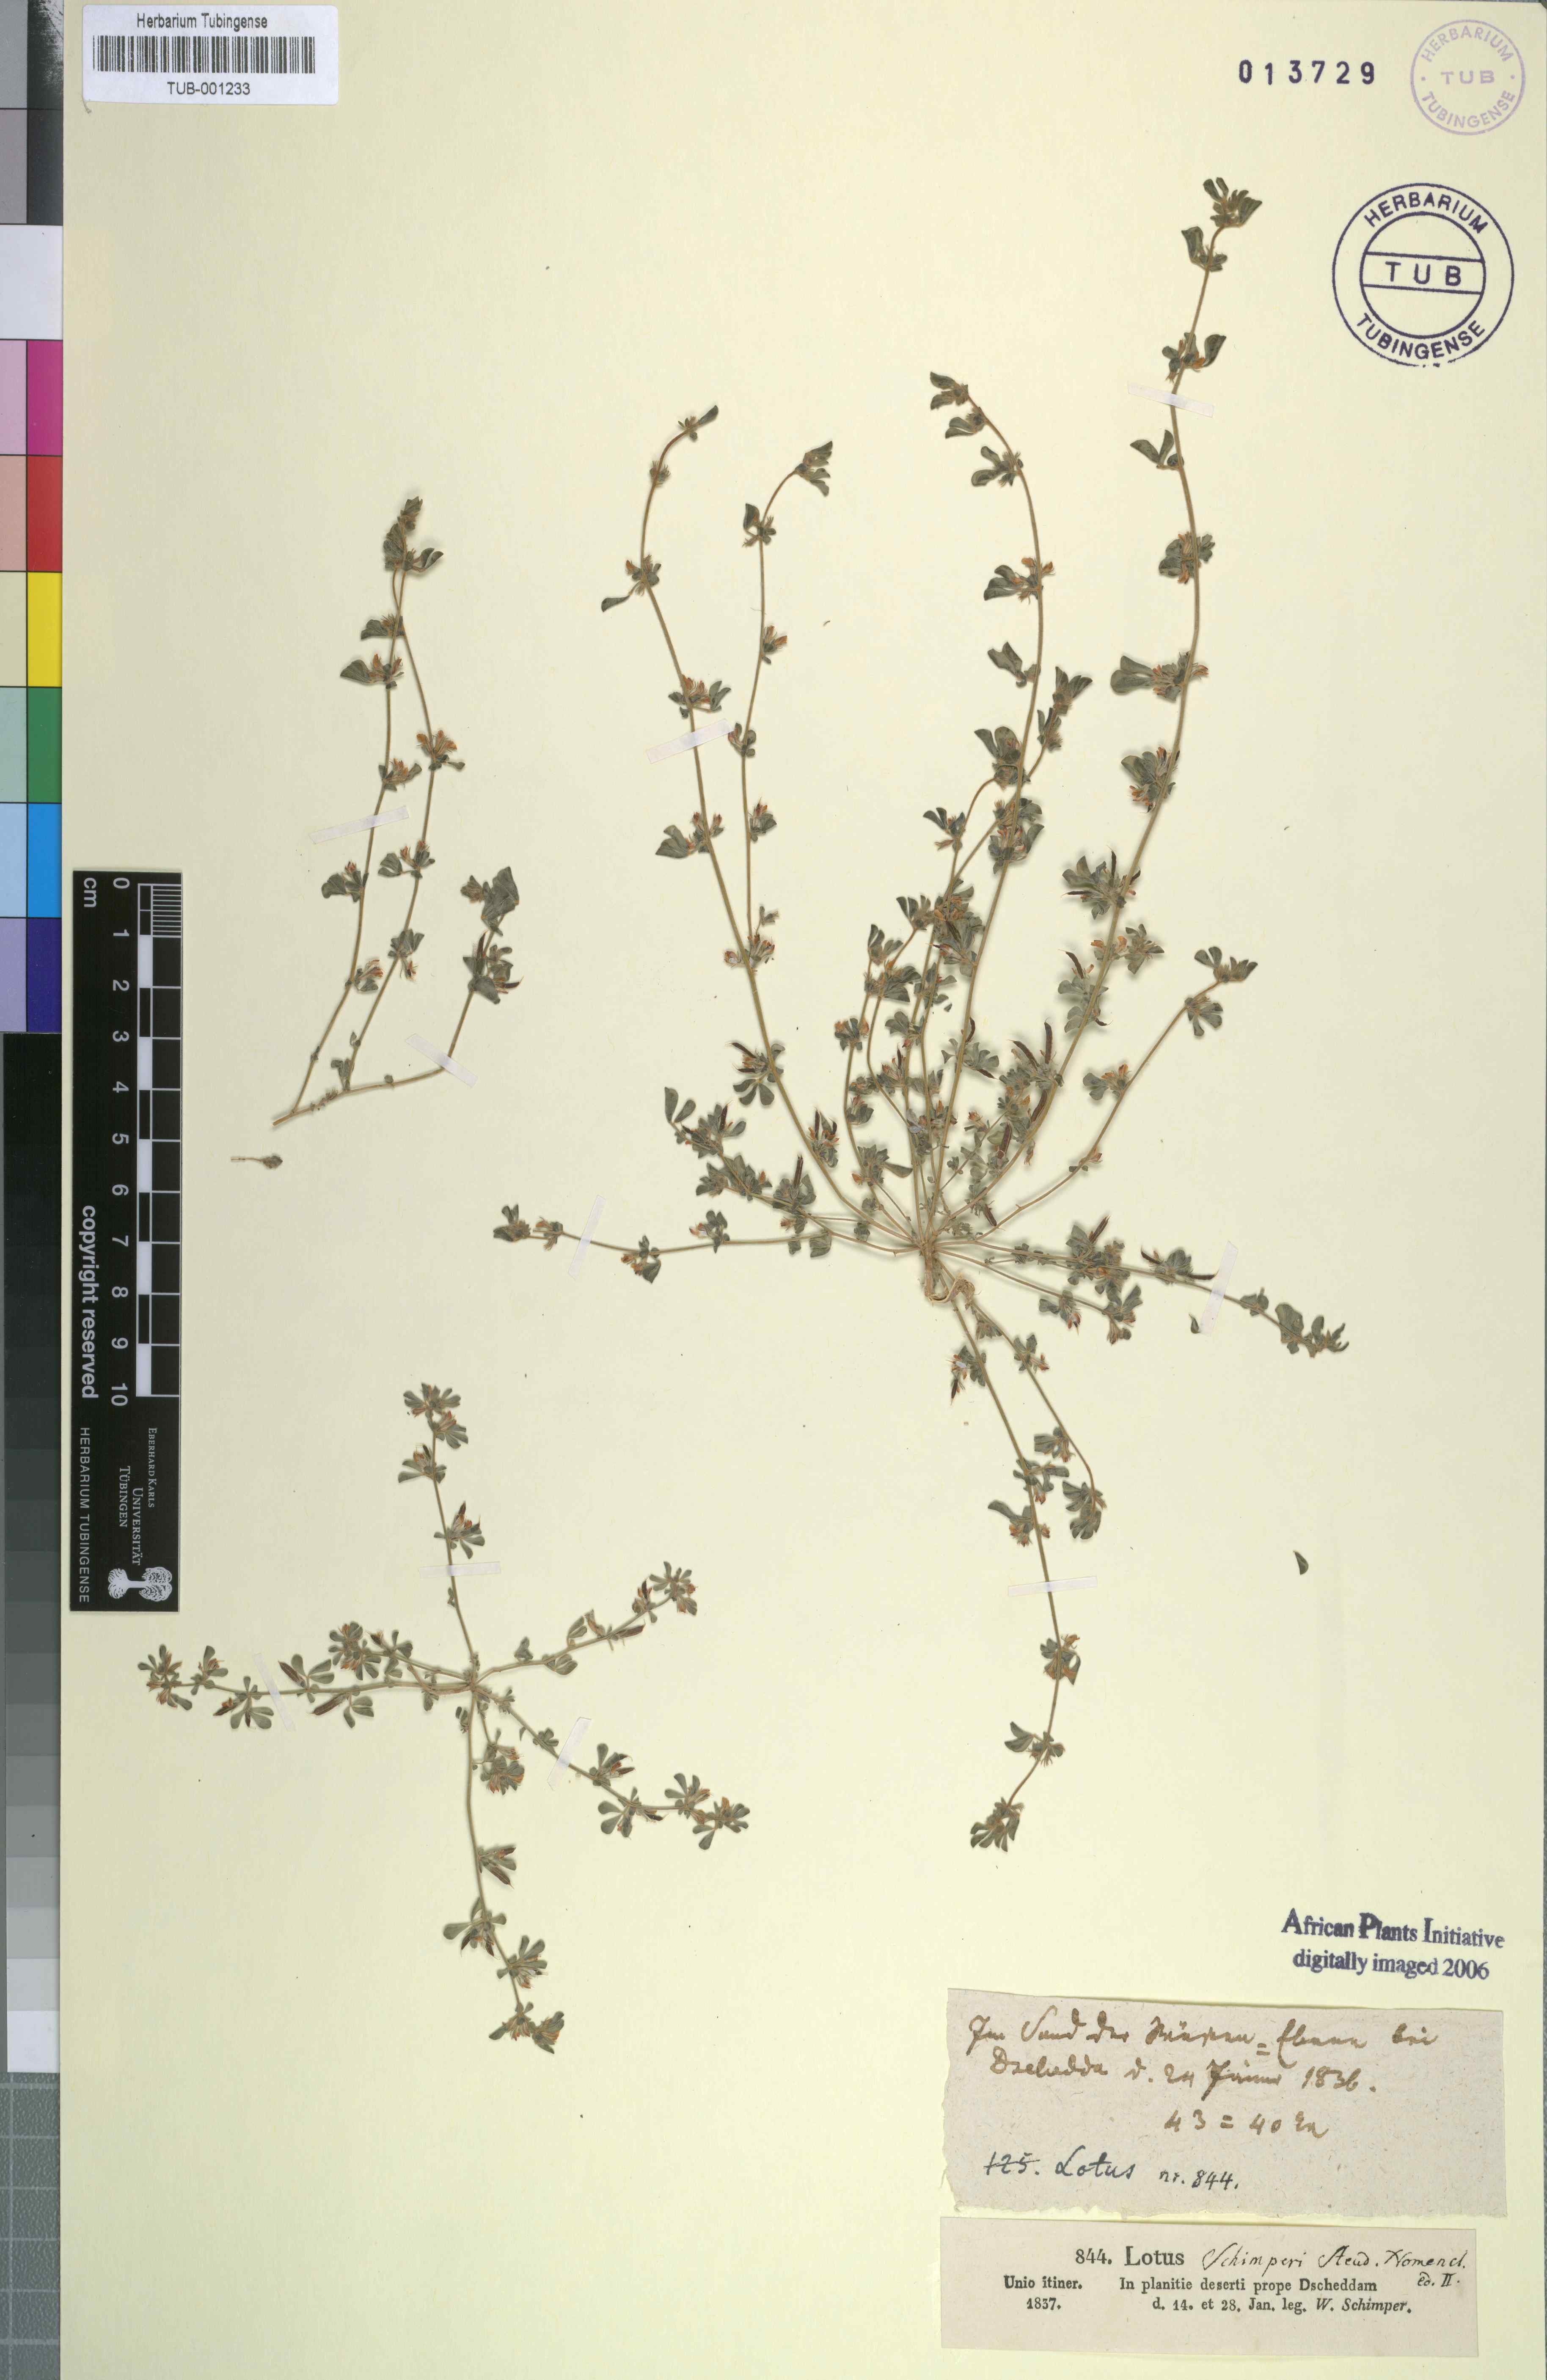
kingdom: Plantae
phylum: Tracheophyta
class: Magnoliopsida
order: Fabales
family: Fabaceae
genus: Lotus
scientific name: Lotus glinoides
